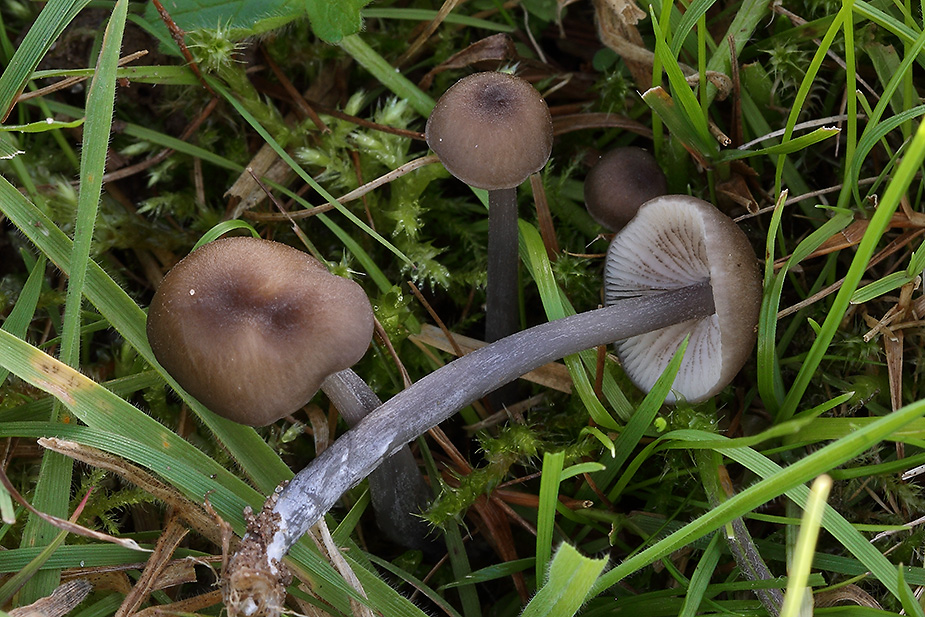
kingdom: Fungi
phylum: Basidiomycota
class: Agaricomycetes
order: Agaricales
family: Entolomataceae
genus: Entoloma
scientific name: Entoloma allospermum
